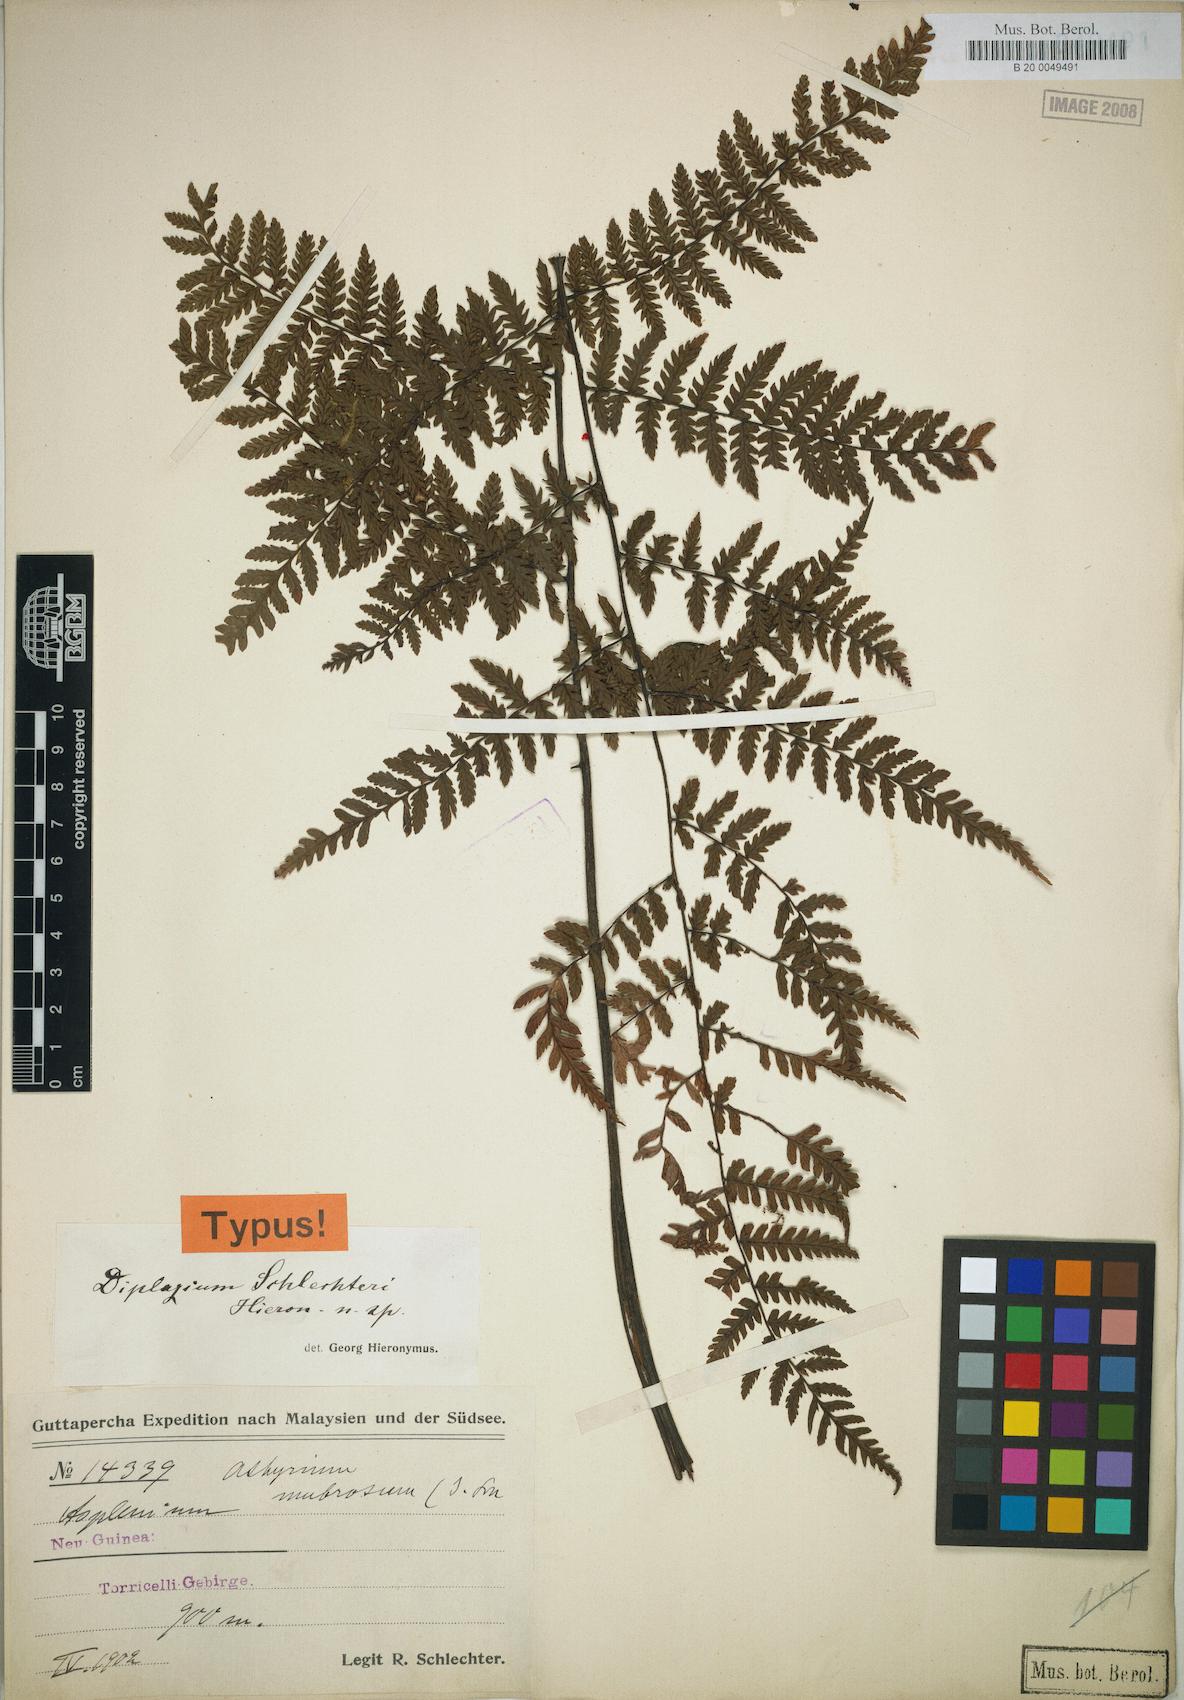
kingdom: Plantae
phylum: Tracheophyta
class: Polypodiopsida
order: Polypodiales
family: Athyriaceae
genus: Diplazium
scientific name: Diplazium schlechteri
